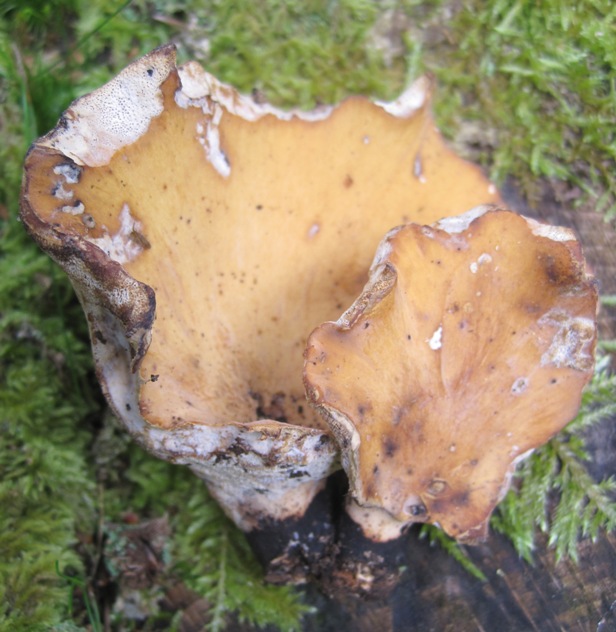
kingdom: Fungi
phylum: Basidiomycota
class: Agaricomycetes
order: Polyporales
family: Polyporaceae
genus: Cerioporus
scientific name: Cerioporus varius
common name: foranderlig stilkporesvamp
